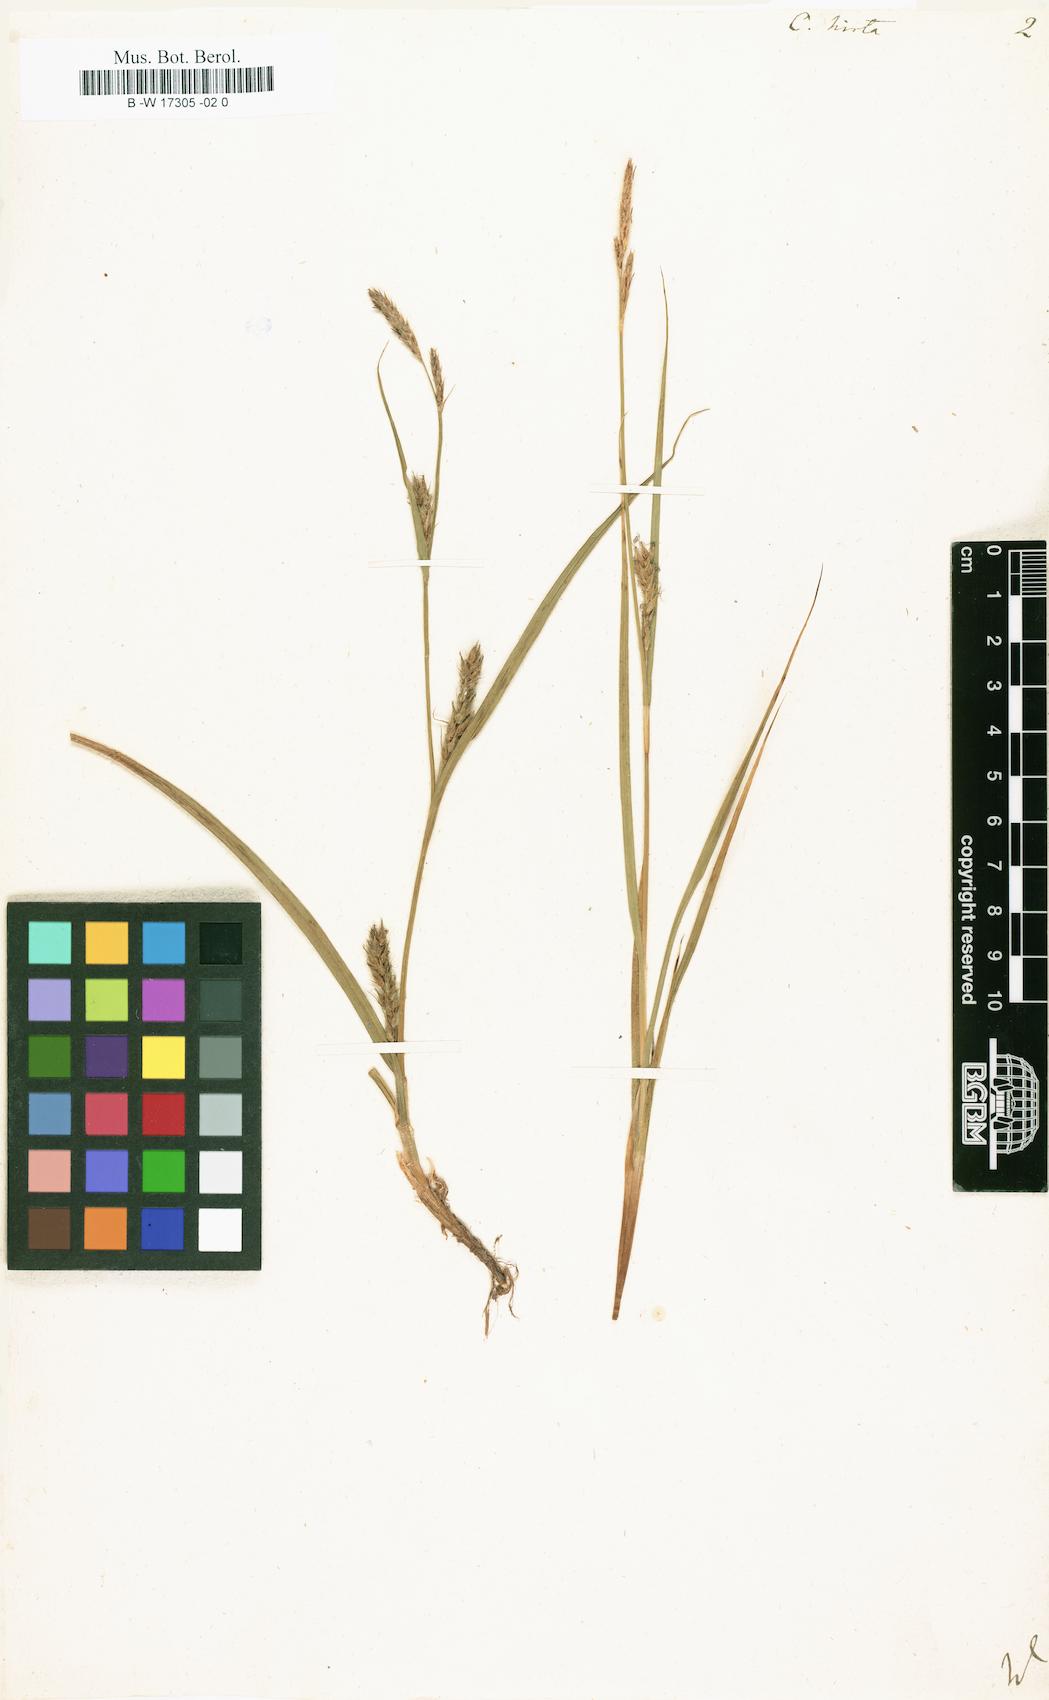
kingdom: Plantae
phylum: Tracheophyta
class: Liliopsida
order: Poales
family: Cyperaceae
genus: Carex
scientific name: Carex hirta
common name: Hairy sedge
